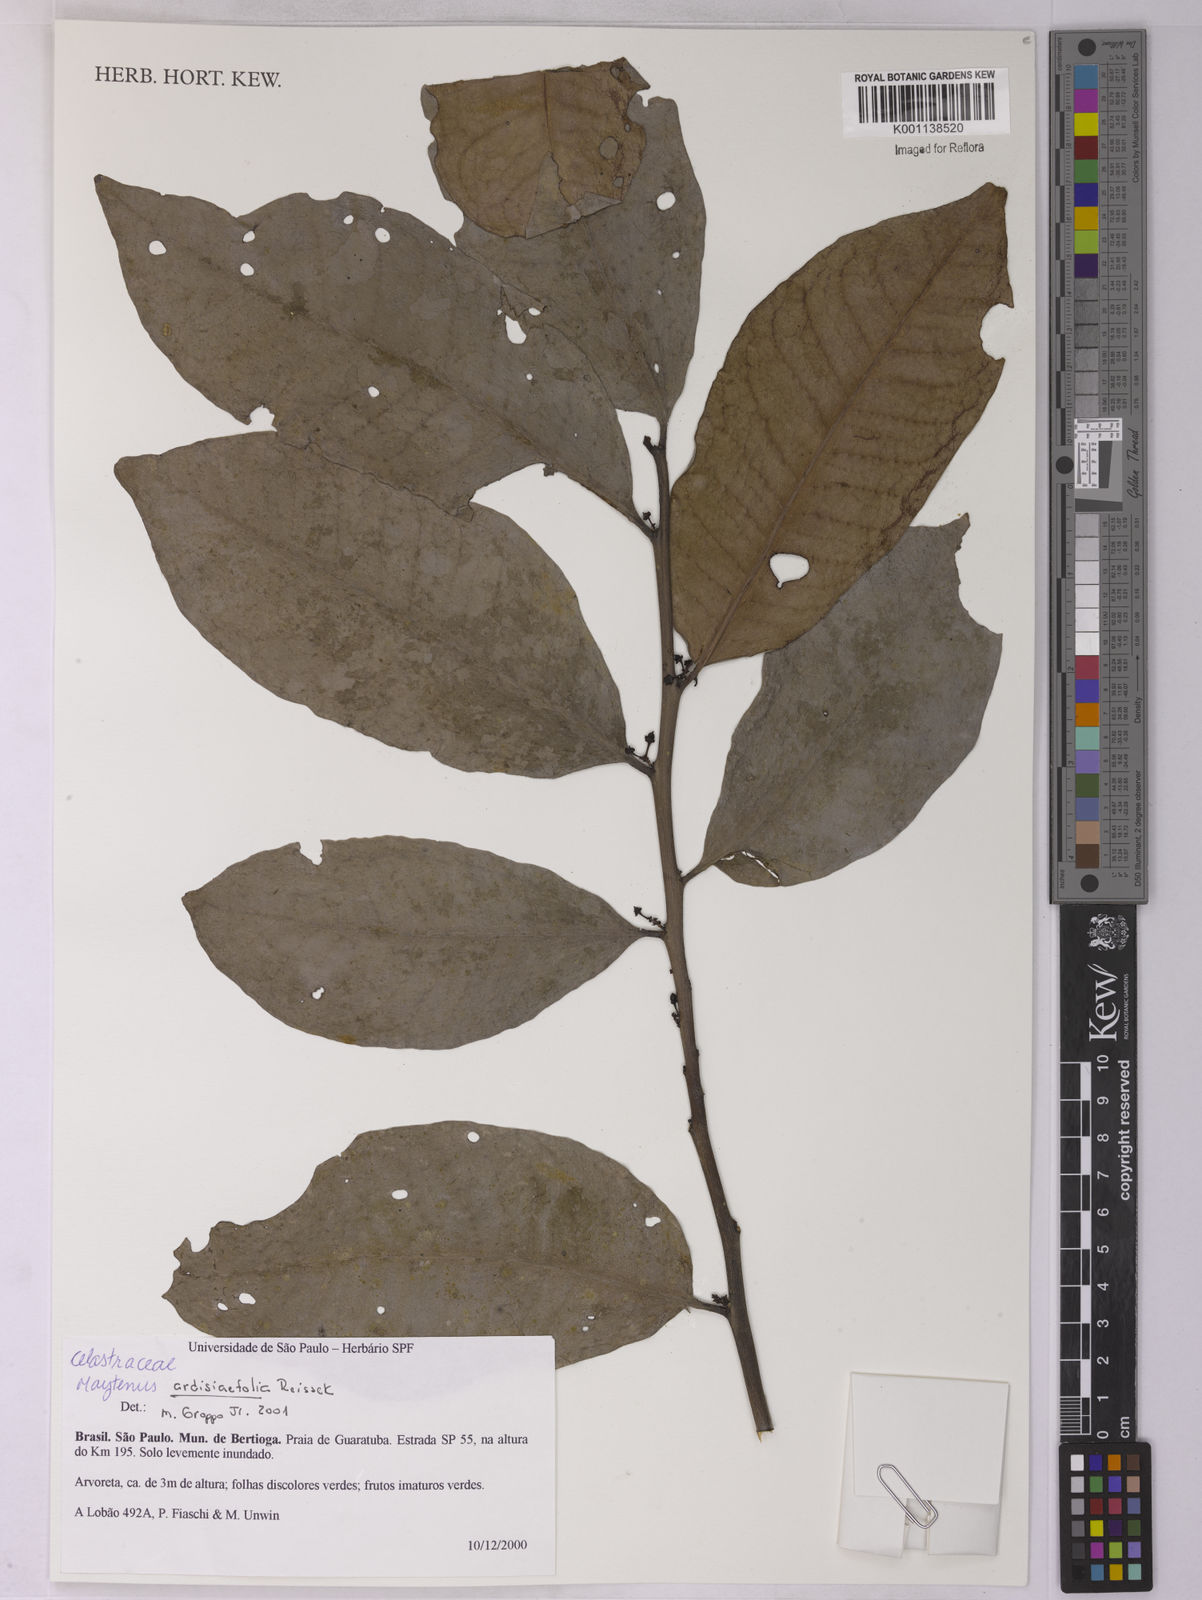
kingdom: Plantae
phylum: Tracheophyta
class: Magnoliopsida
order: Celastrales
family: Celastraceae
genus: Monteverdia
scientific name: Monteverdia ardisiifolia
